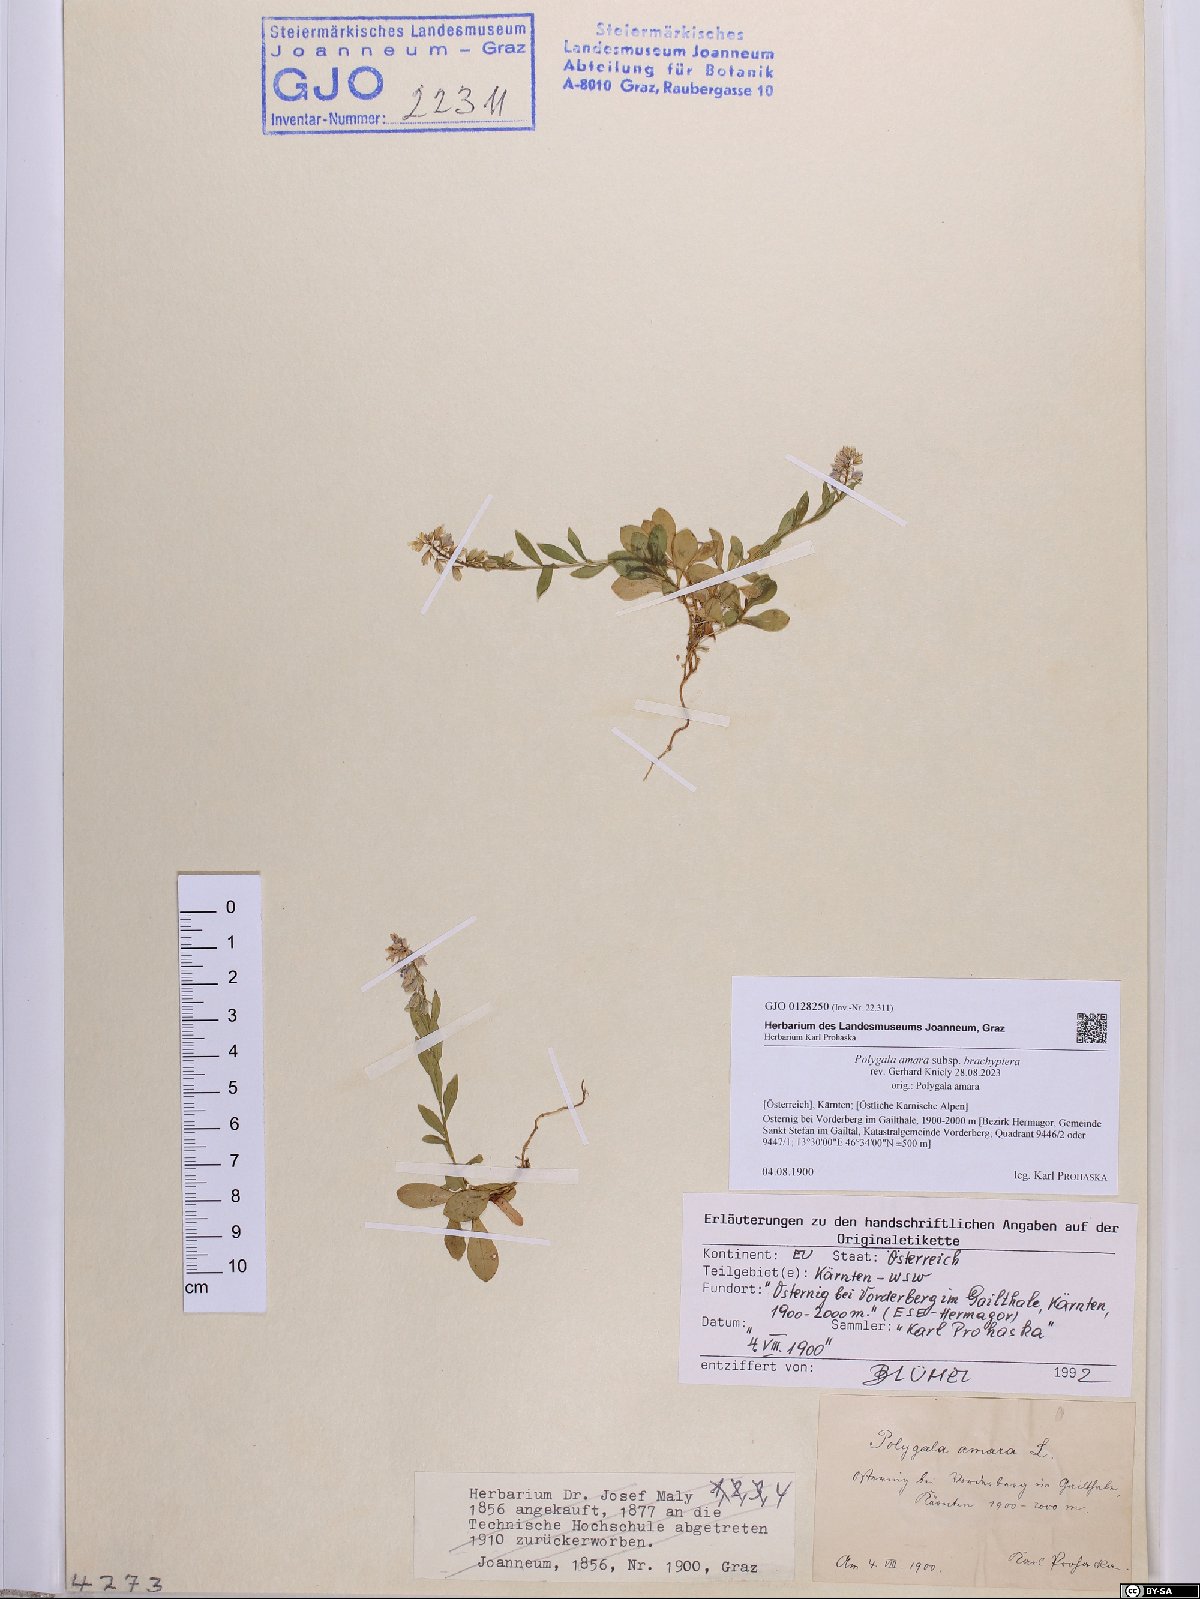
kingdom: Plantae
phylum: Tracheophyta
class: Magnoliopsida
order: Fabales
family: Polygalaceae
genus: Polygala
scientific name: Polygala amara
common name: Milkwort
